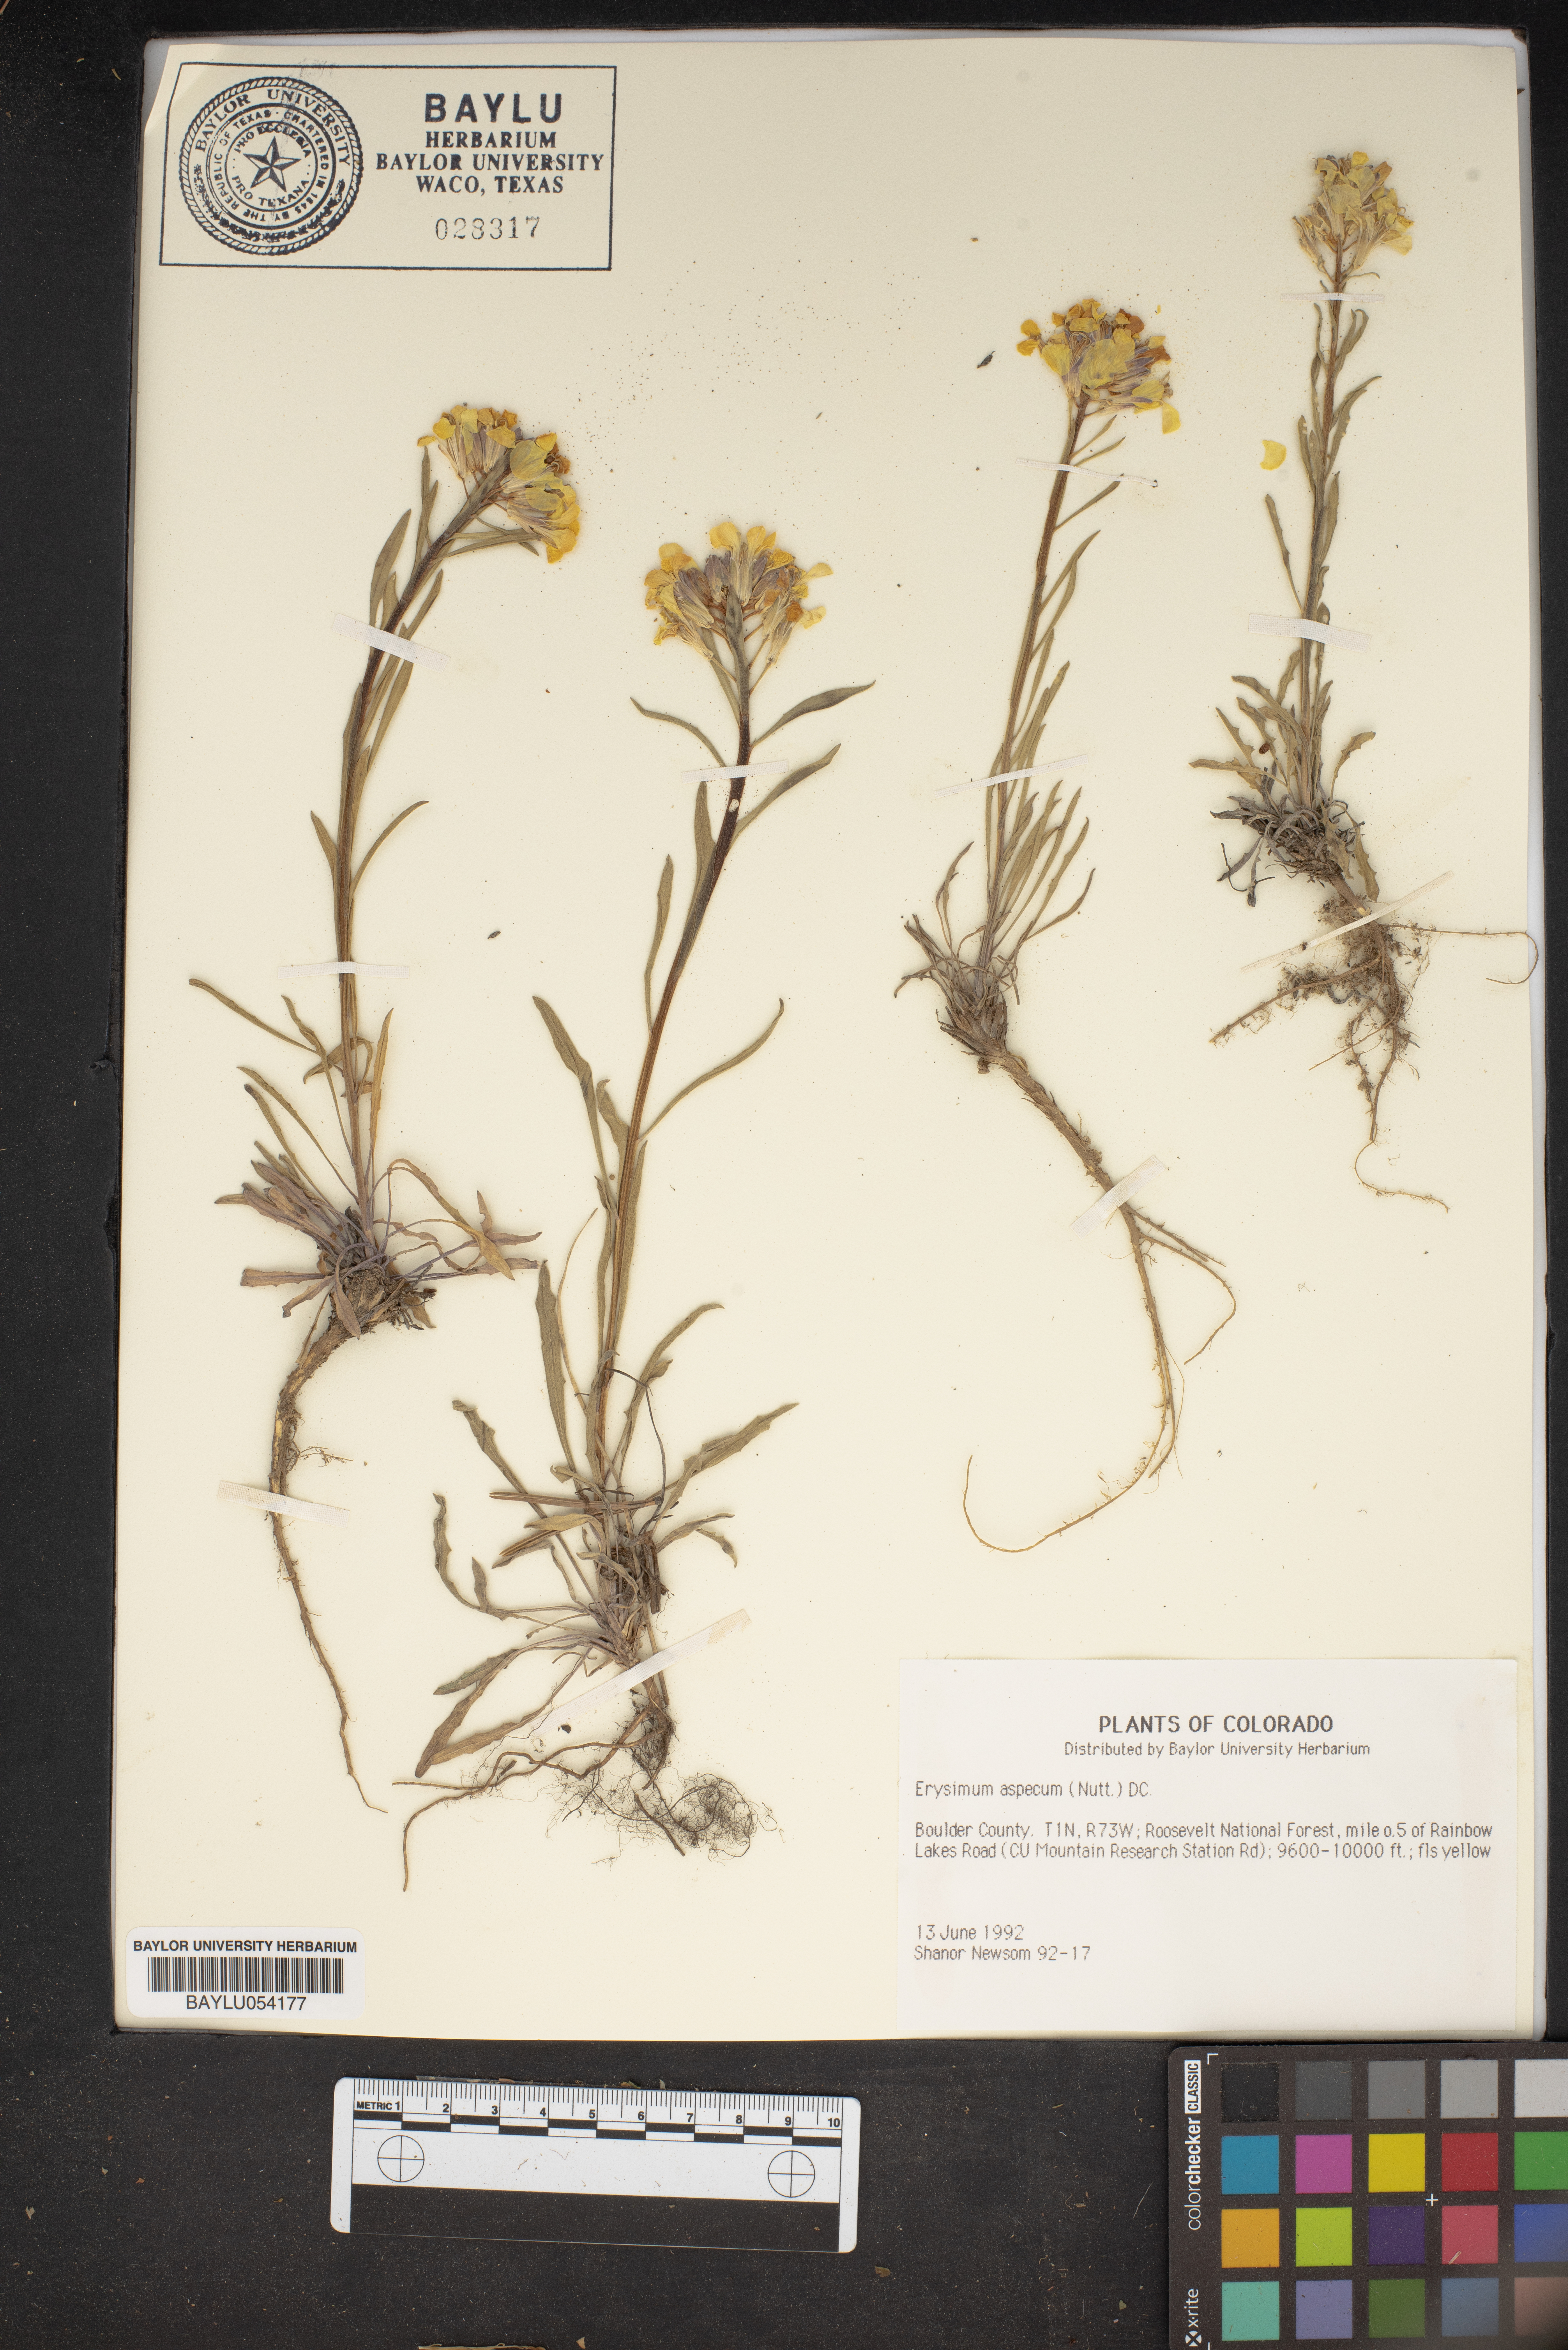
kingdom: Plantae
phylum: Tracheophyta
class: Magnoliopsida
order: Brassicales
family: Brassicaceae
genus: Erysimum
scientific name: Erysimum asperum
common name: Western wallflower
